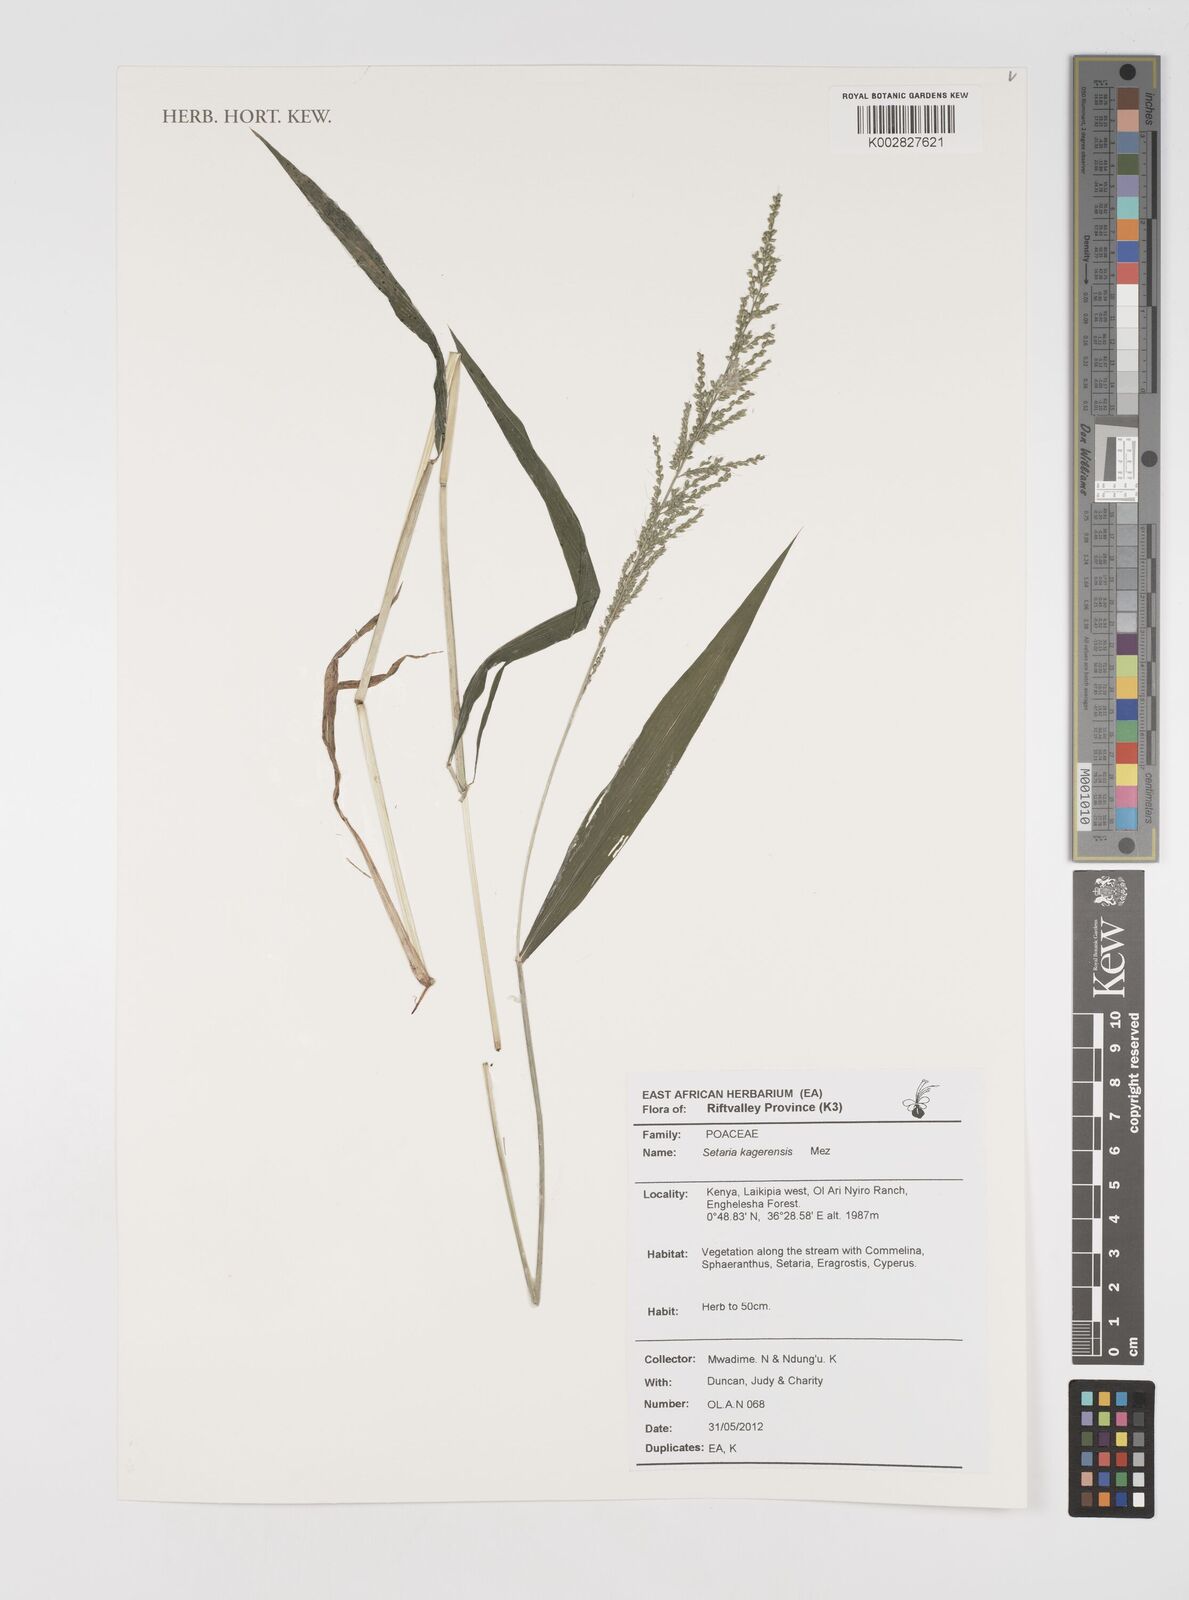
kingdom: Plantae
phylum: Tracheophyta
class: Liliopsida
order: Poales
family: Poaceae
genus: Setaria
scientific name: Setaria kagerensis
